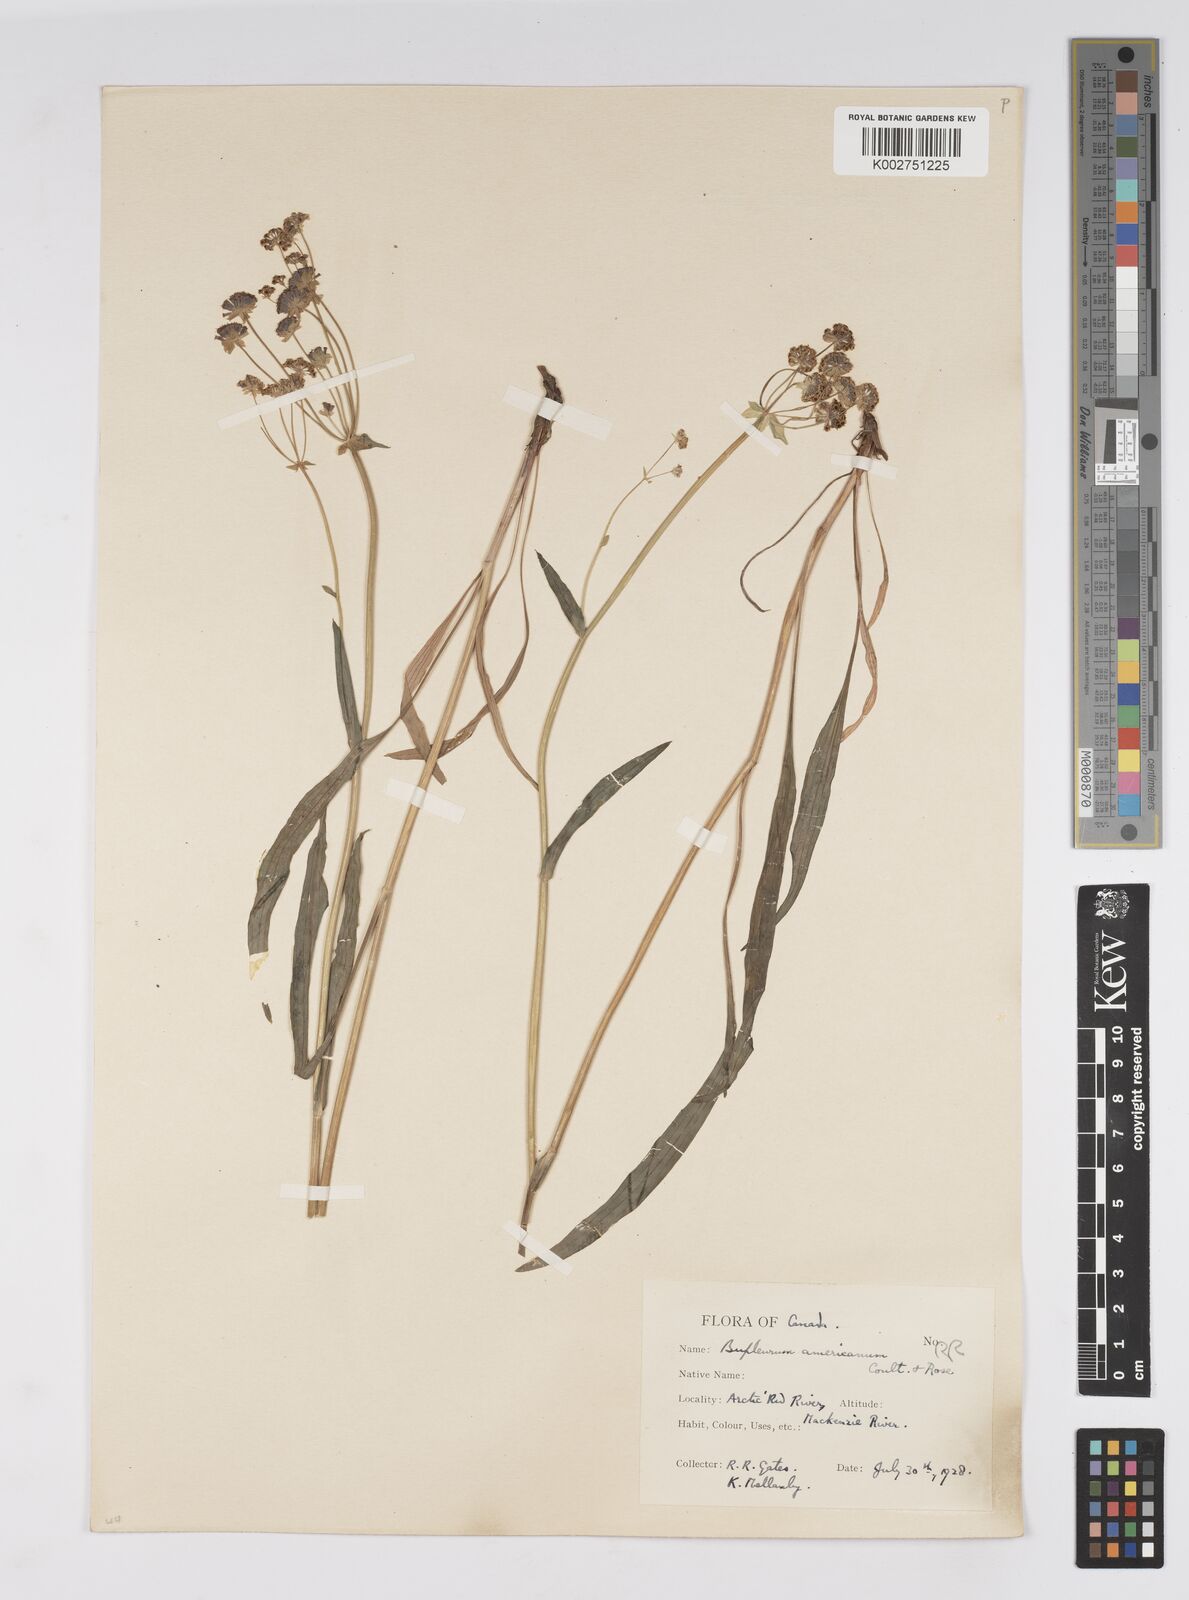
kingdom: Plantae
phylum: Tracheophyta
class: Magnoliopsida
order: Apiales
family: Apiaceae
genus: Bupleurum
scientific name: Bupleurum americanum
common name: American thoroughwax
